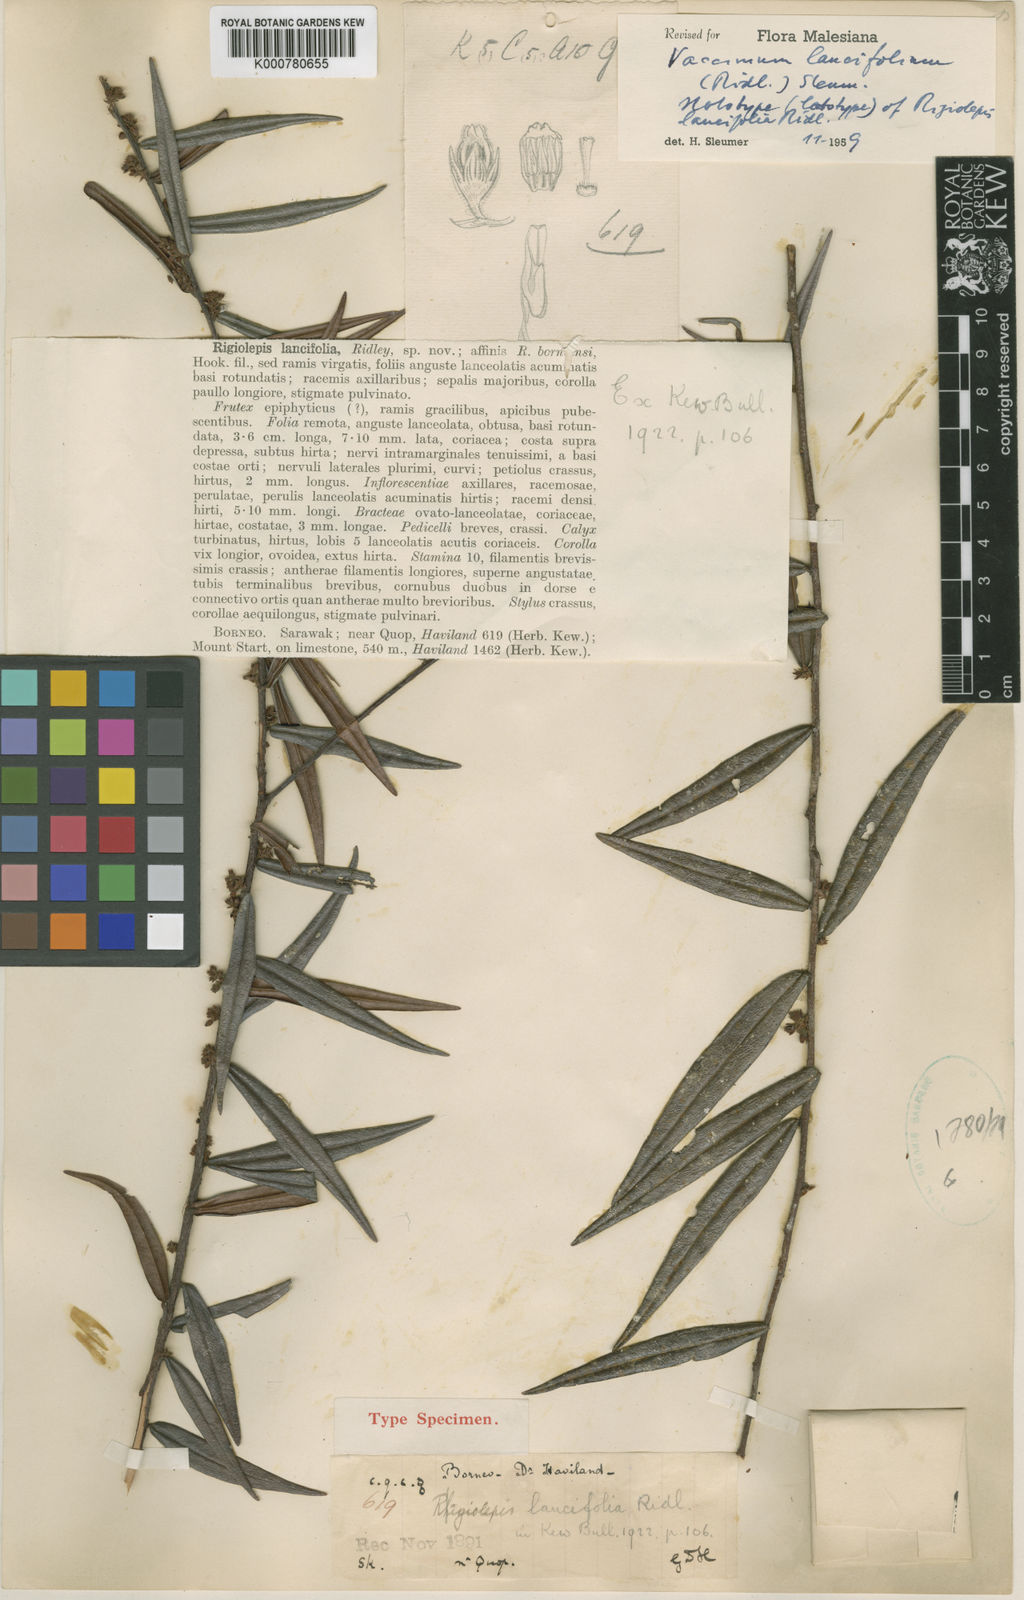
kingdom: Plantae
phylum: Tracheophyta
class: Magnoliopsida
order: Ericales
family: Ericaceae
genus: Rigiolepis
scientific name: Rigiolepis lobbii
